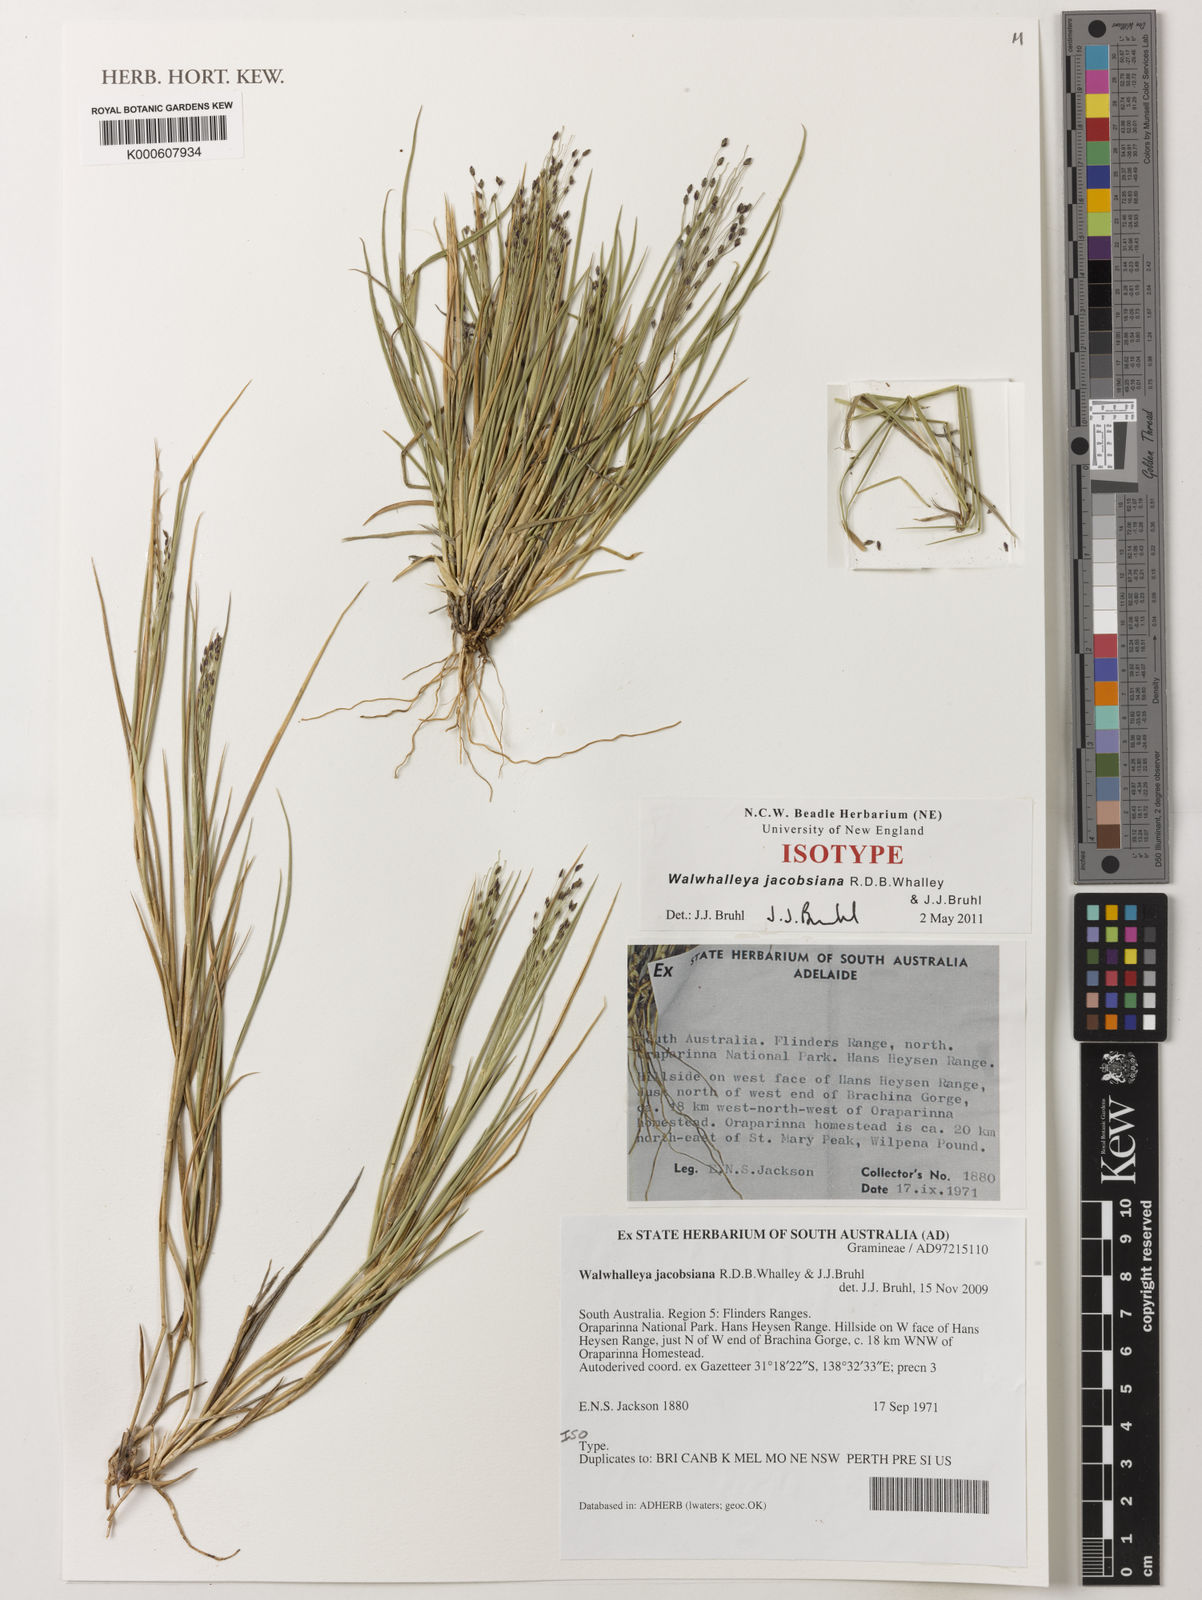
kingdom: Plantae
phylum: Tracheophyta
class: Liliopsida
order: Poales
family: Poaceae
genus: Walwhalleya
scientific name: Walwhalleya jacobsiana
